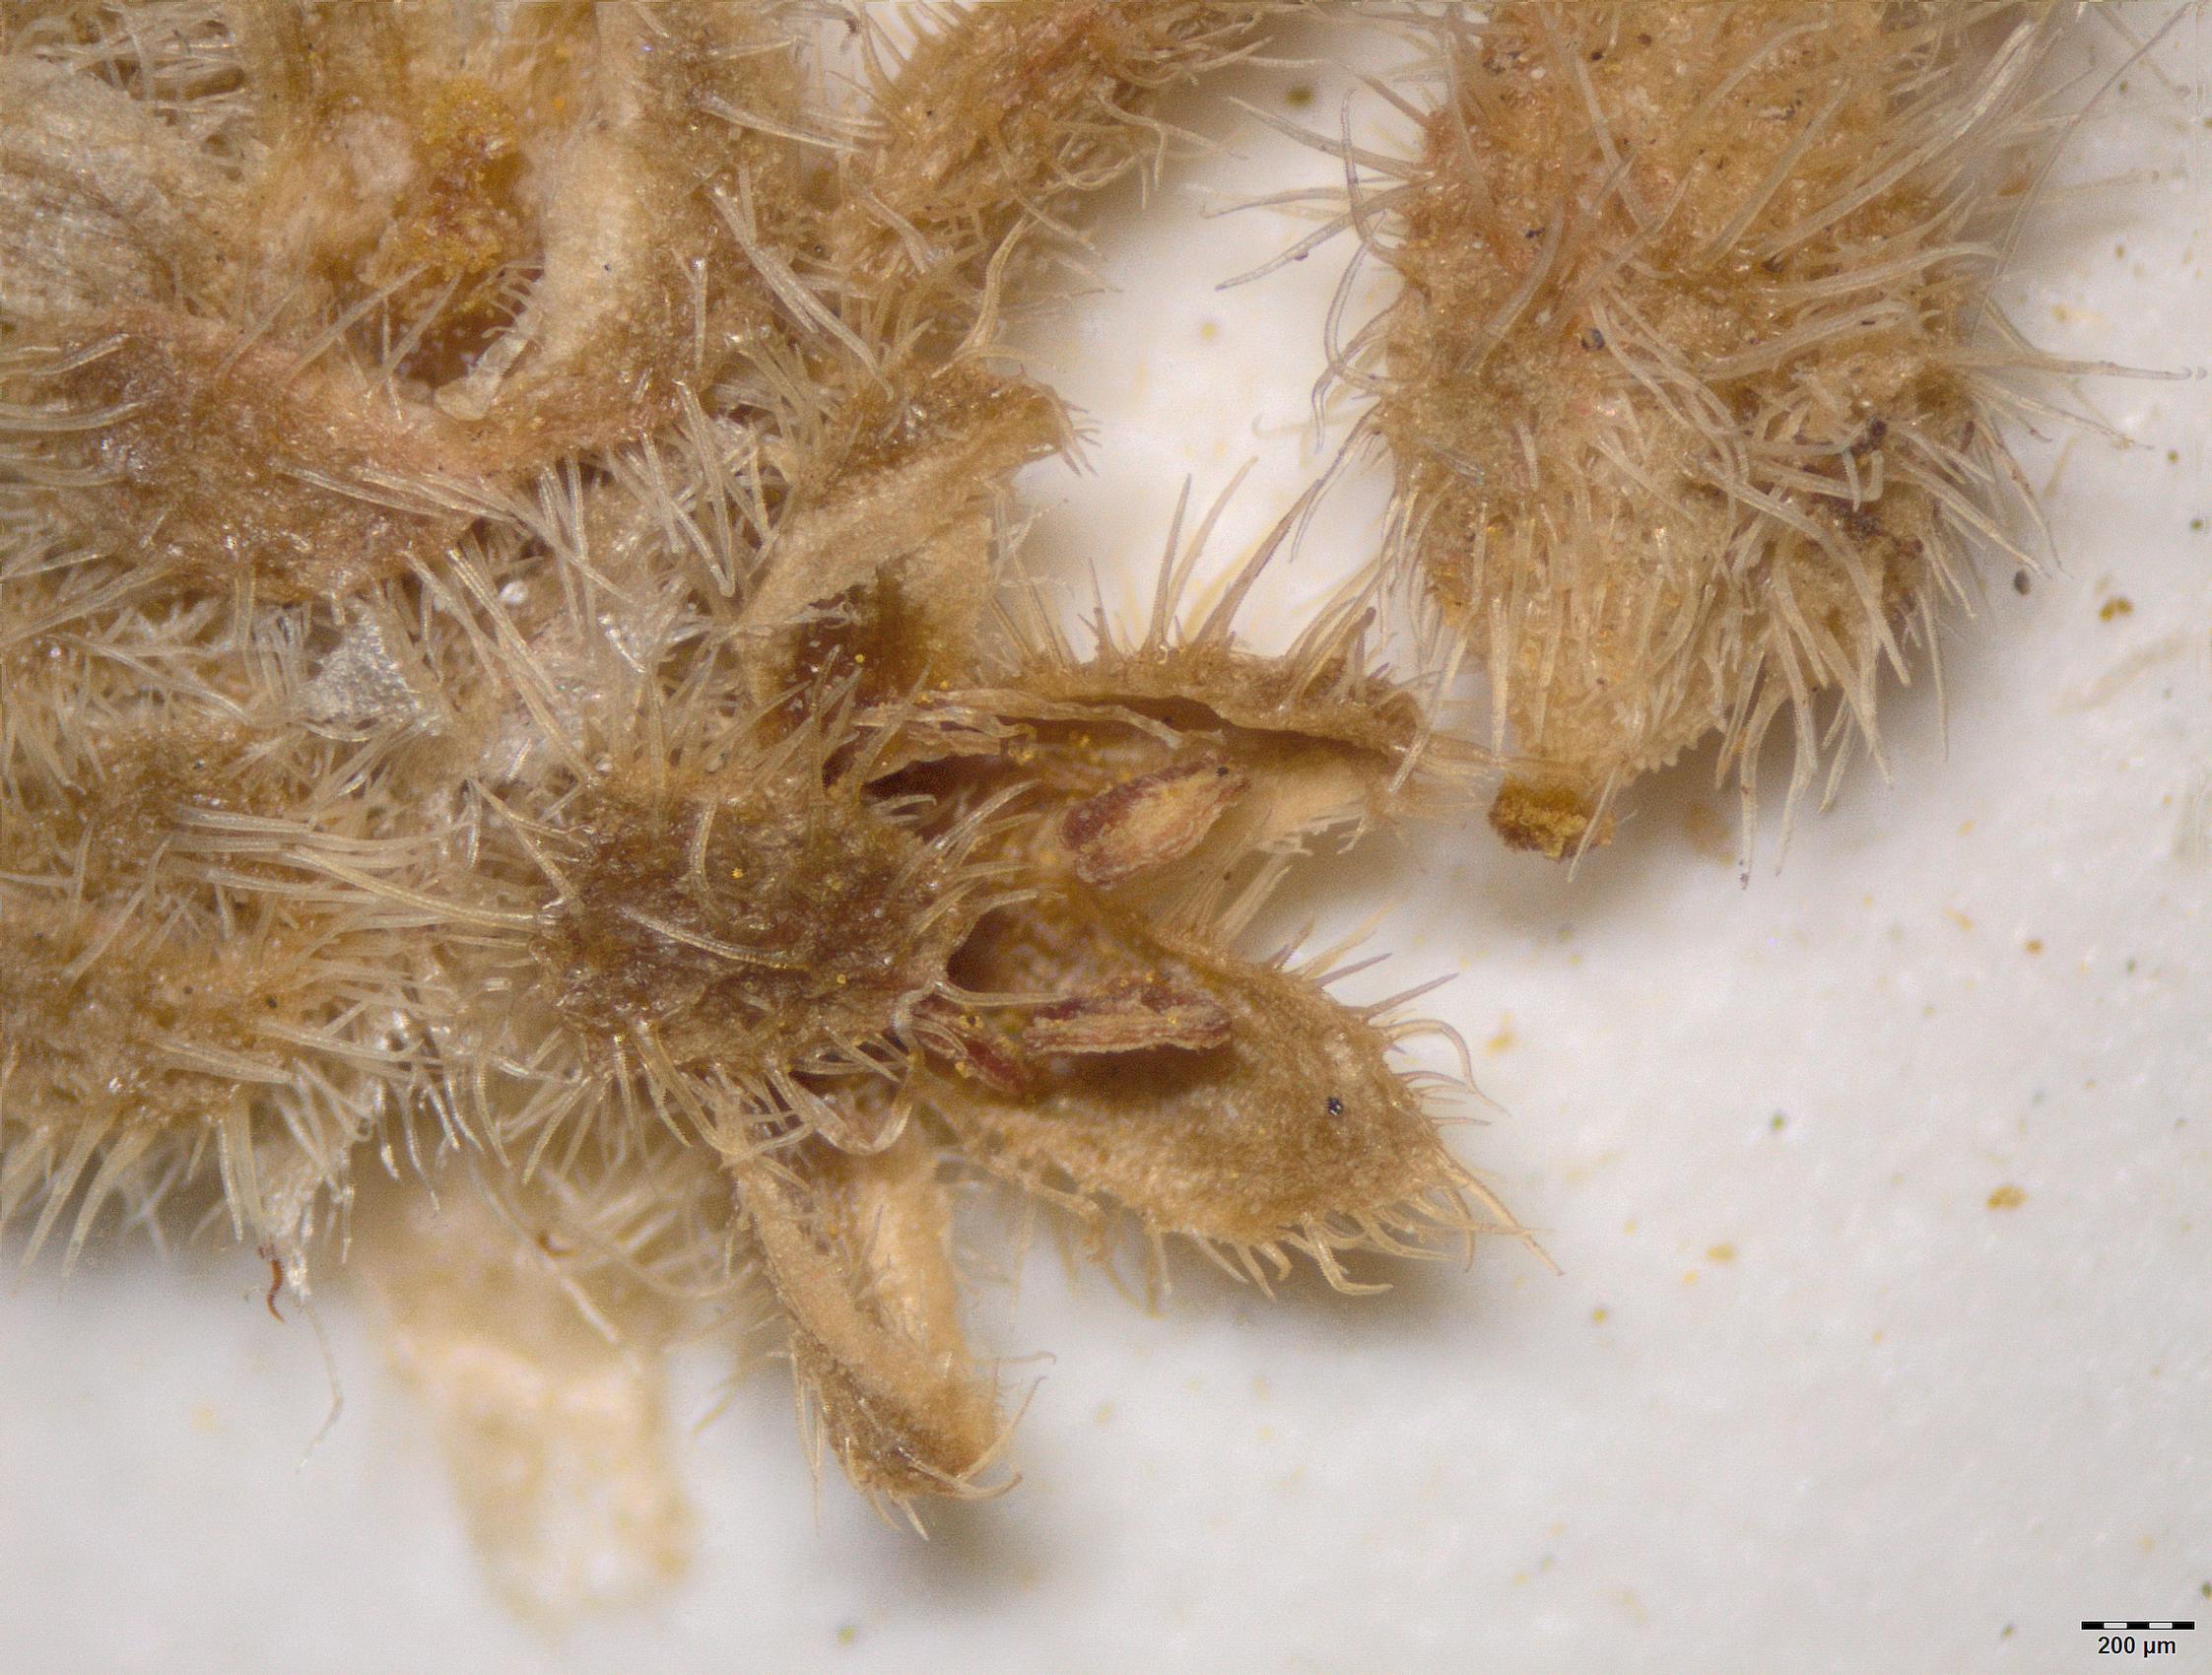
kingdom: Plantae
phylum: Tracheophyta
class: Magnoliopsida
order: Caryophyllales
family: Caryophyllaceae
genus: Herniaria
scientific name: Herniaria riphaea
